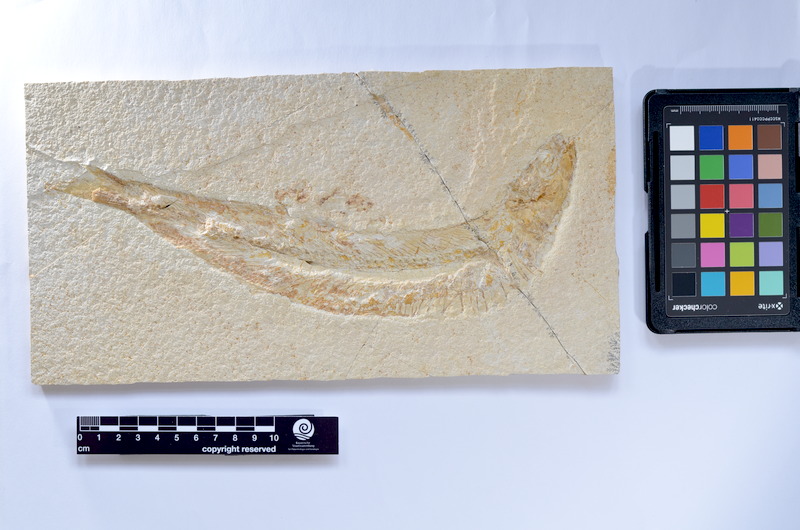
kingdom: Animalia
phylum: Chordata
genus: Thrissops
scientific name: Thrissops
